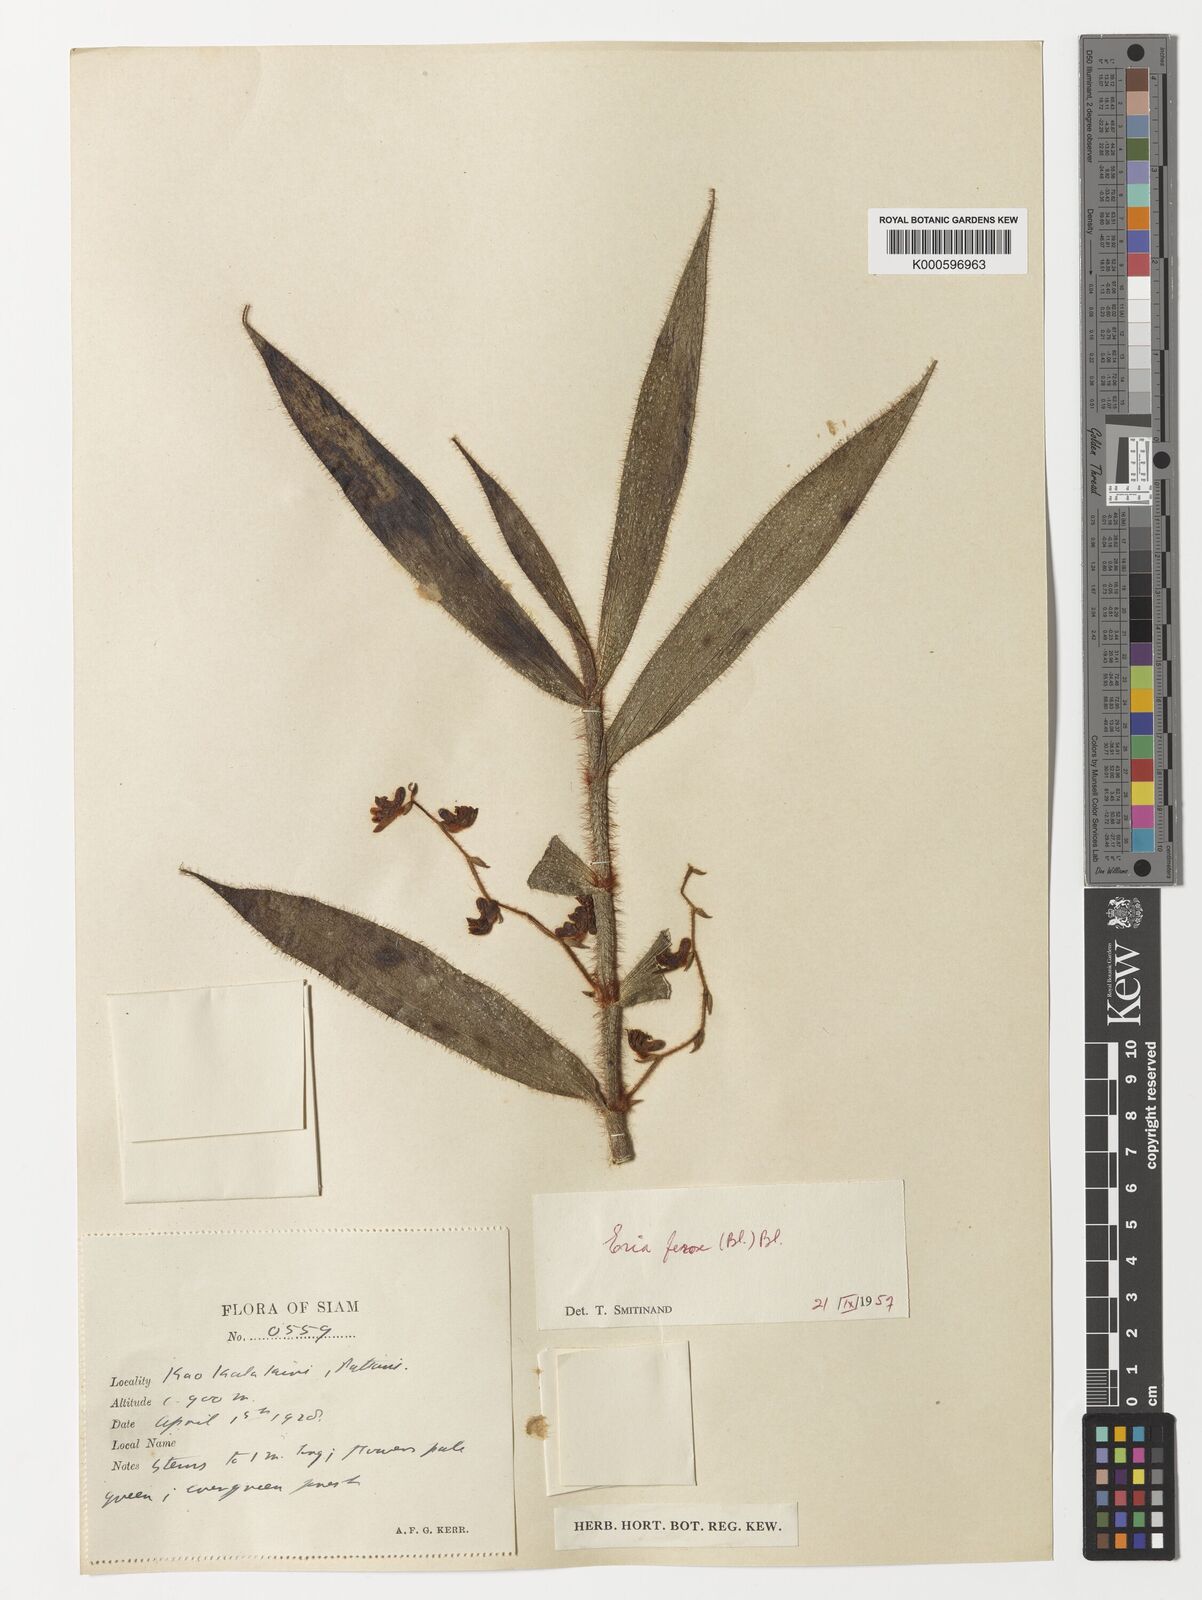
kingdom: Plantae
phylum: Tracheophyta
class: Liliopsida
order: Asparagales
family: Orchidaceae
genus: Trichotosia
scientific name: Trichotosia ferox
